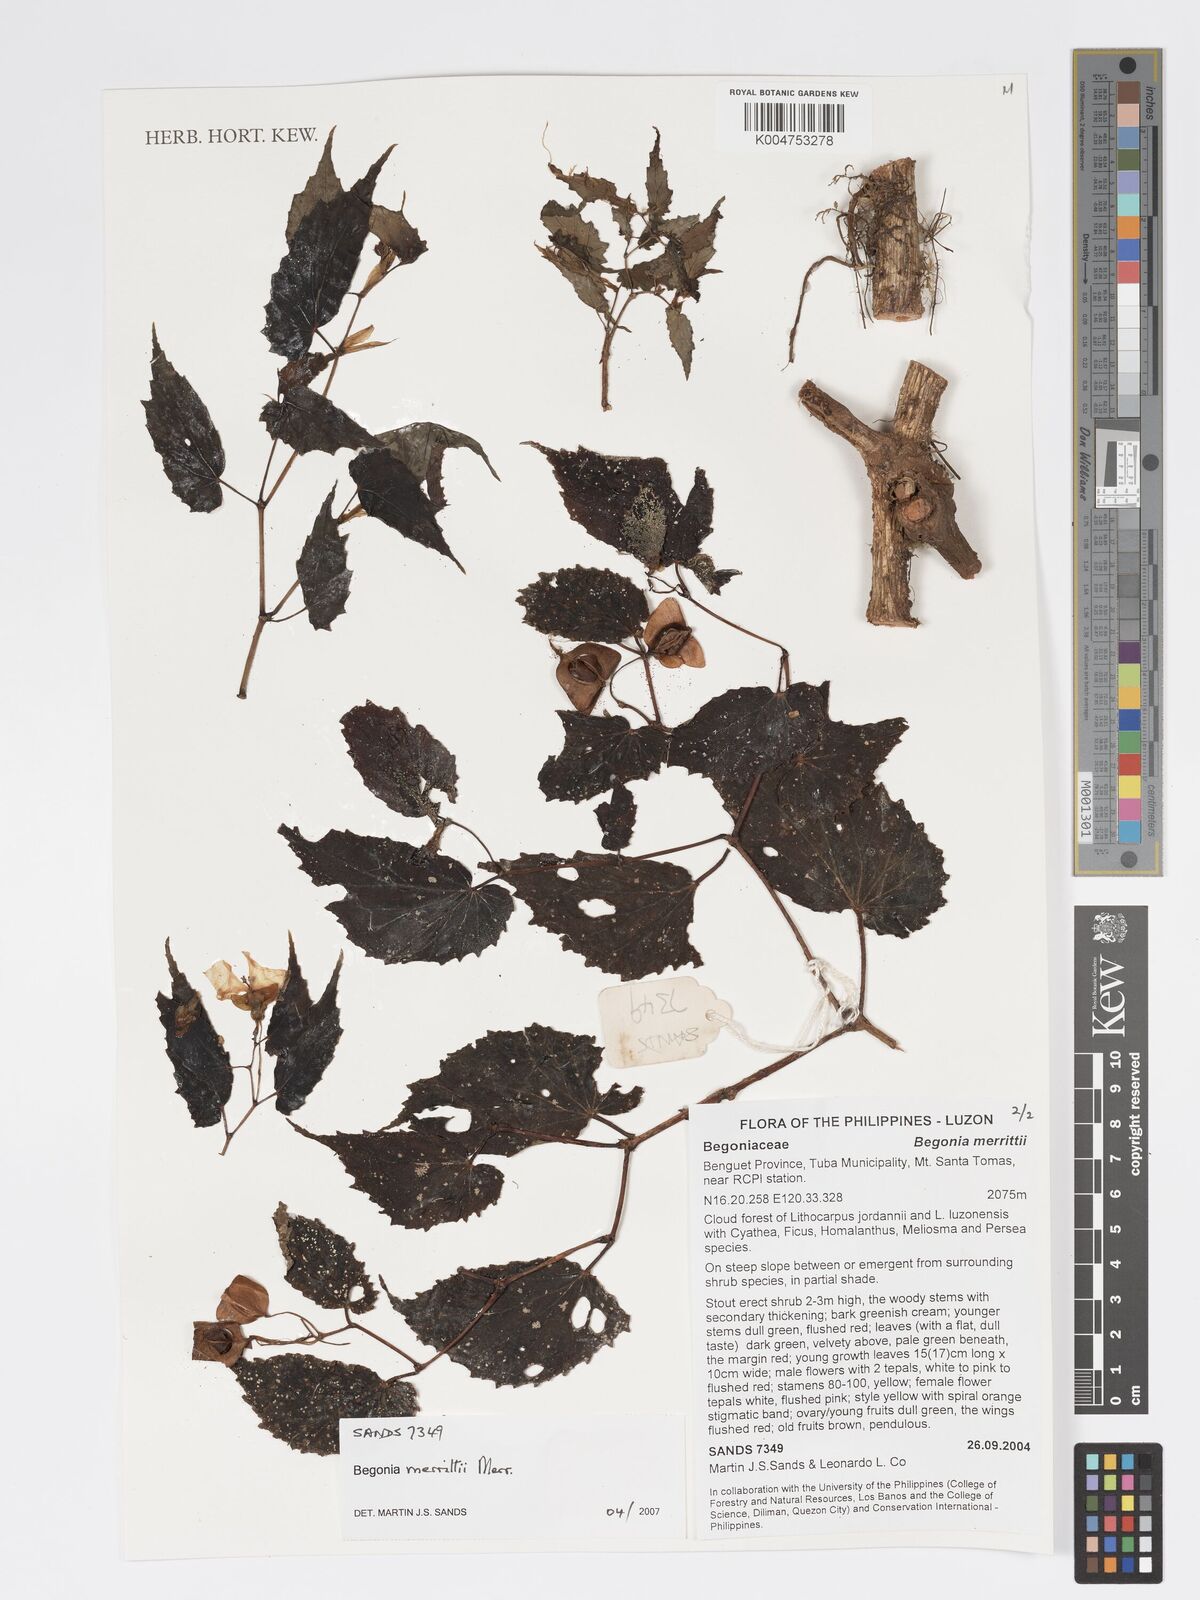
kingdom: Plantae
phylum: Tracheophyta
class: Magnoliopsida
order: Cucurbitales
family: Begoniaceae
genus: Begonia
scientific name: Begonia merrittii
